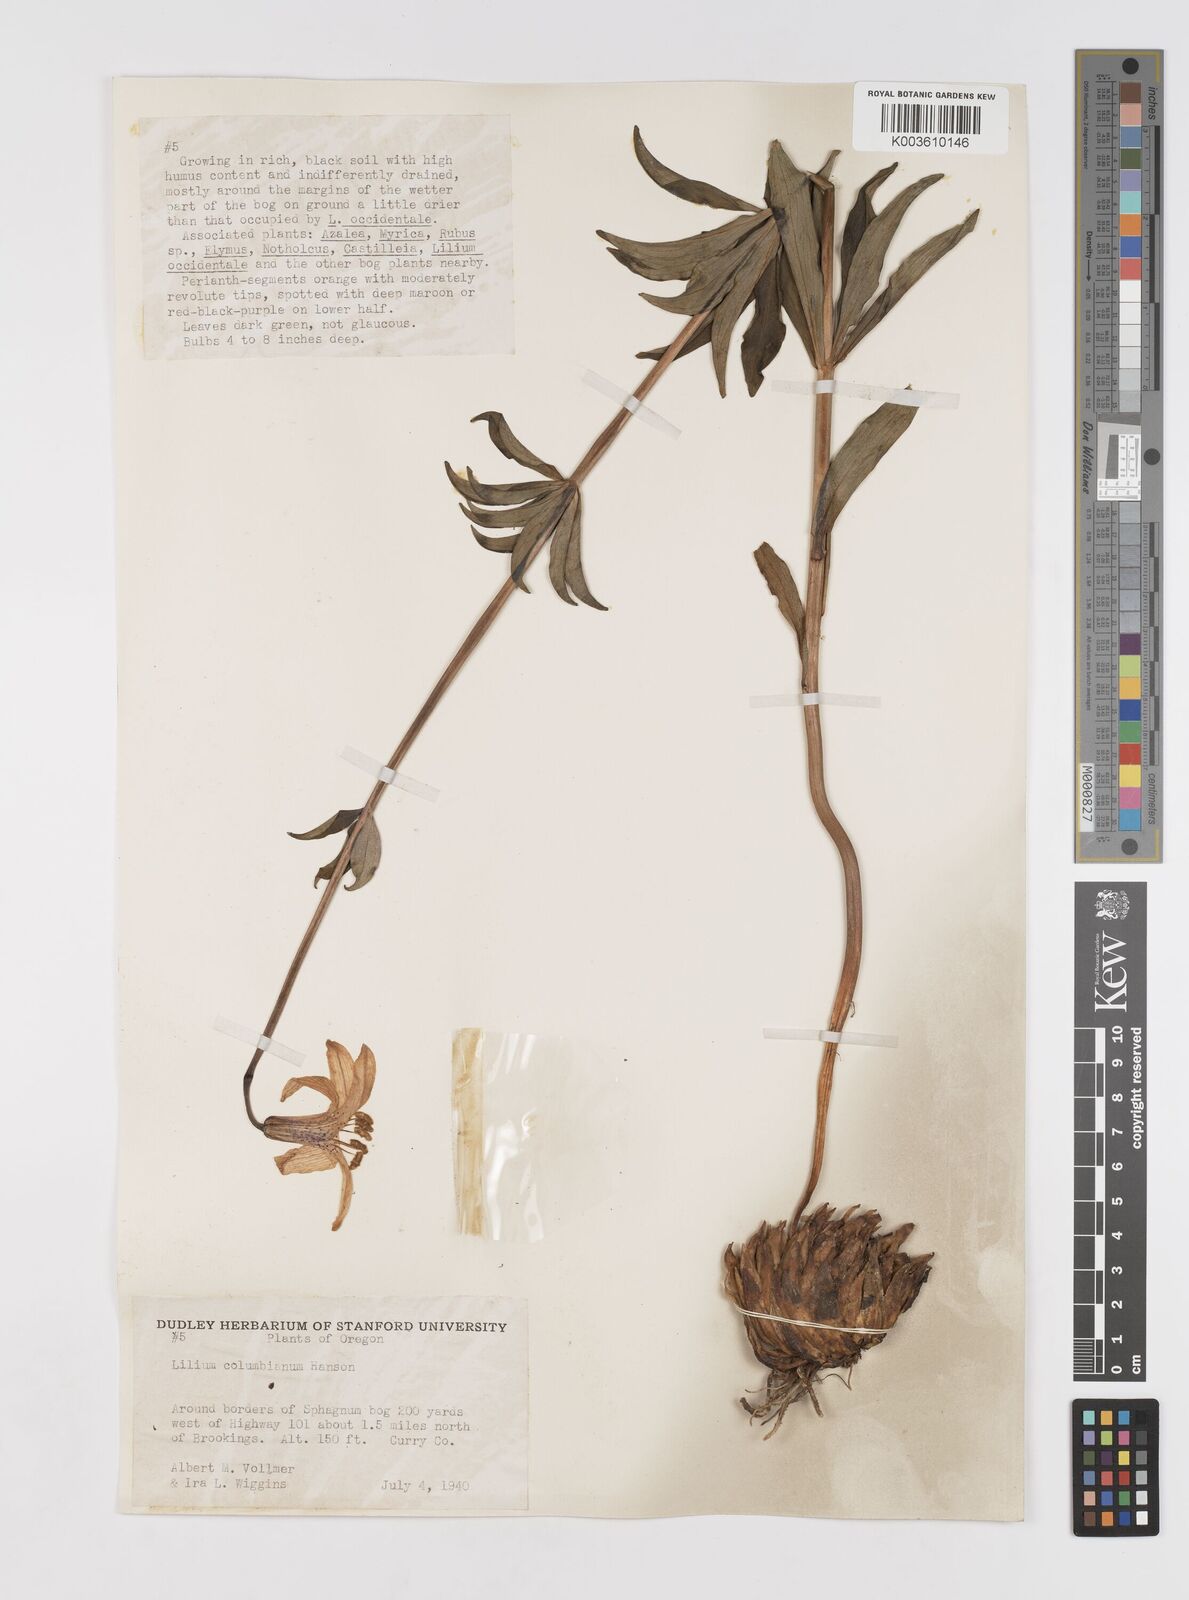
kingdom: Plantae
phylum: Tracheophyta
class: Liliopsida
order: Liliales
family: Liliaceae
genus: Lilium
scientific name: Lilium columbianum
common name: Columbia lily
